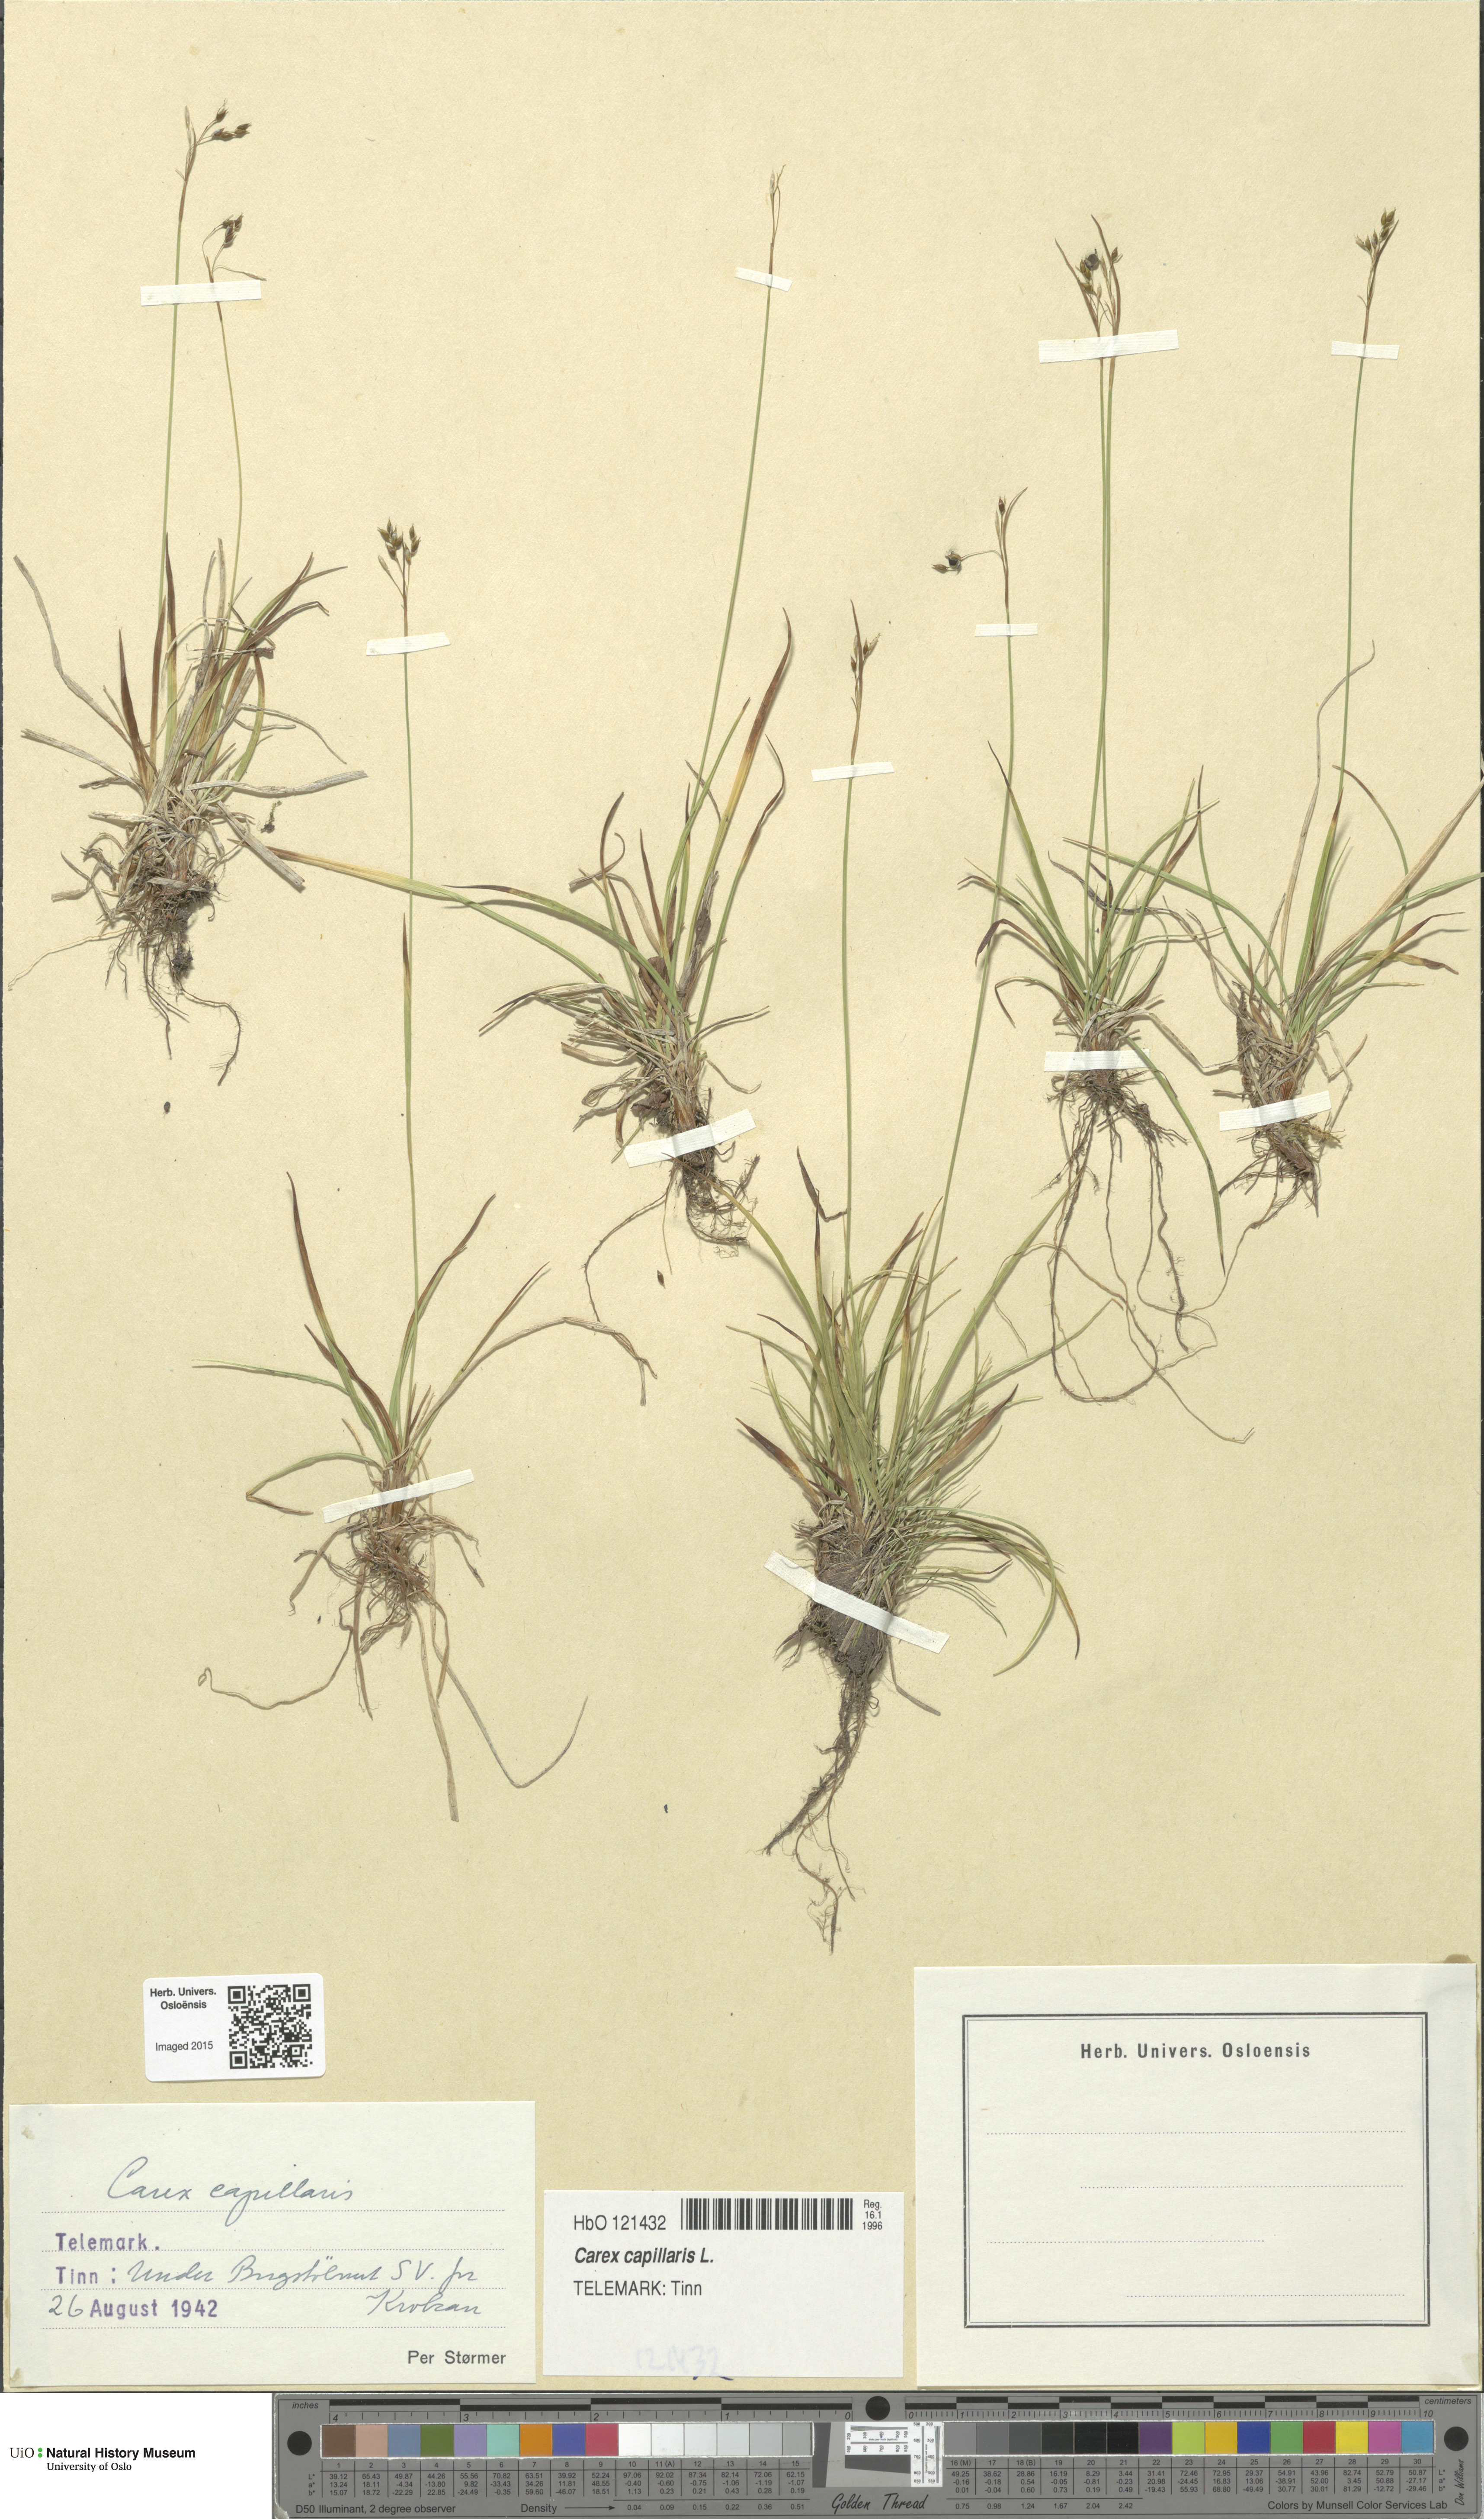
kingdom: Plantae
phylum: Tracheophyta
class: Liliopsida
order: Poales
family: Cyperaceae
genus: Carex
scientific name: Carex capillaris
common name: Hair sedge
